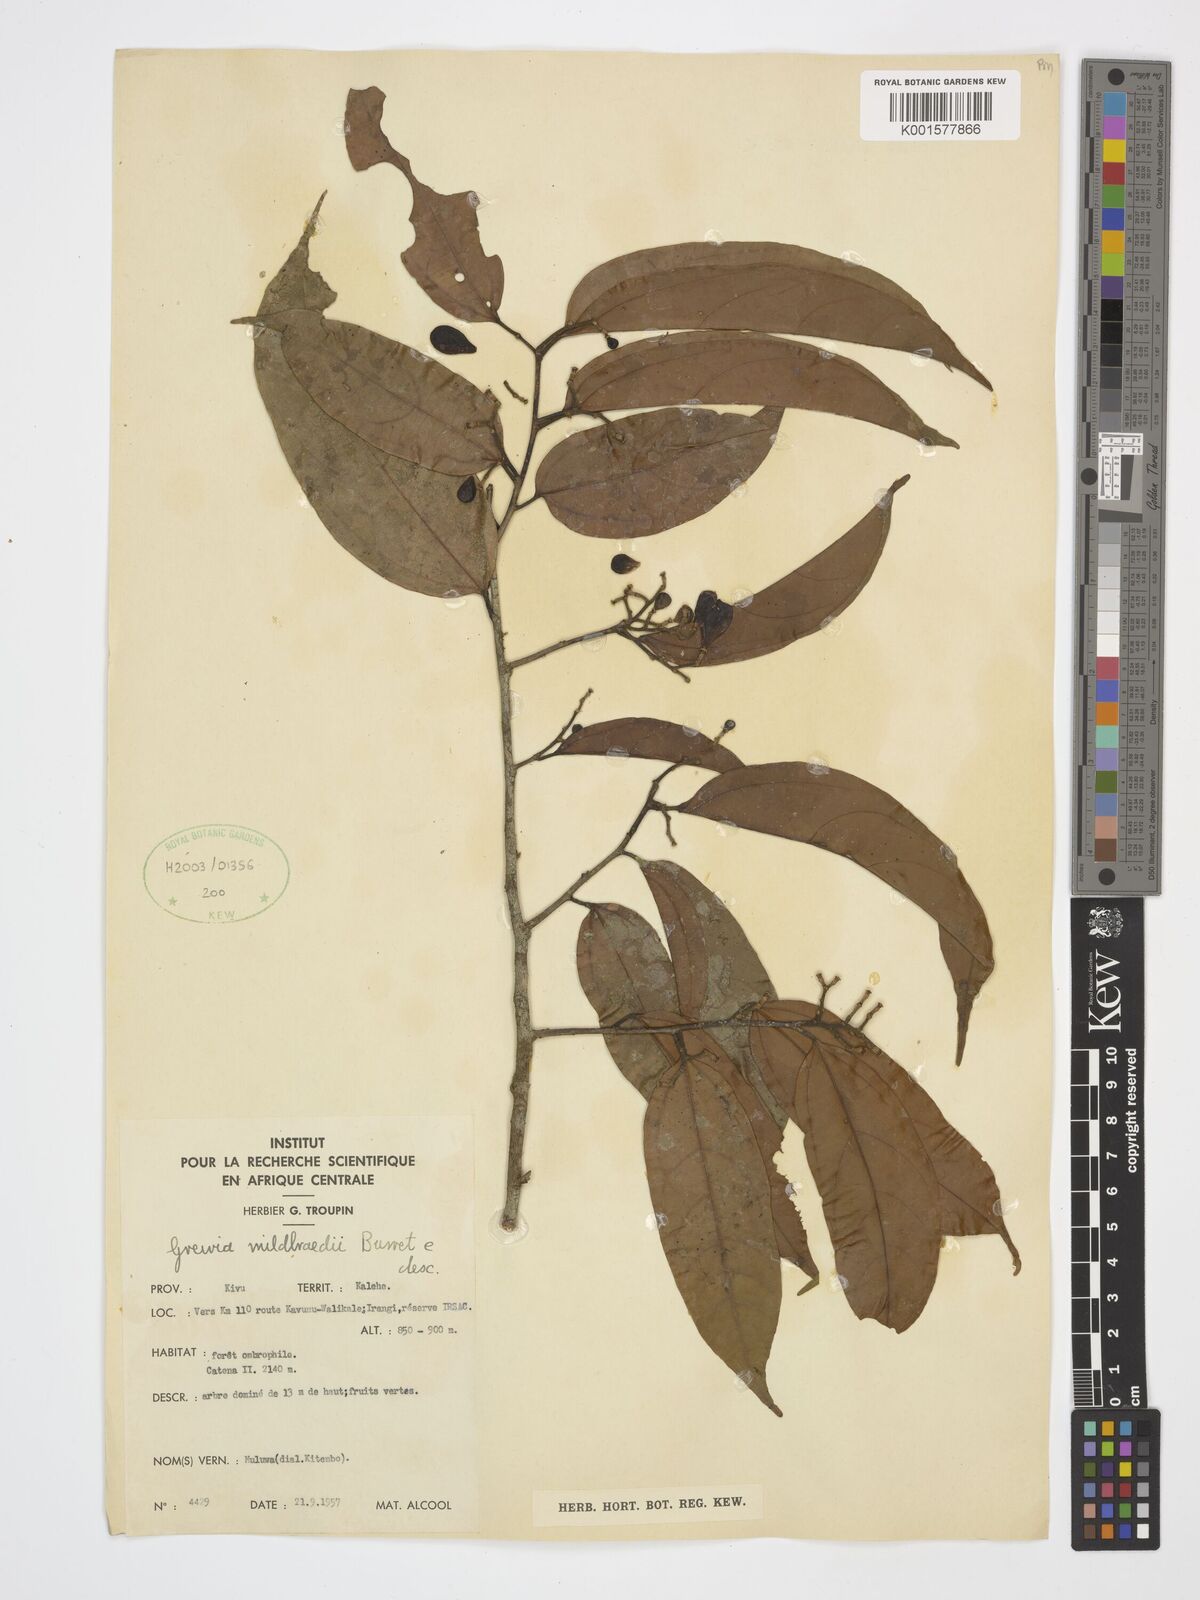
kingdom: Plantae
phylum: Tracheophyta
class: Magnoliopsida
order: Malvales
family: Malvaceae
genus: Microcos
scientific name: Microcos mildbraedii
